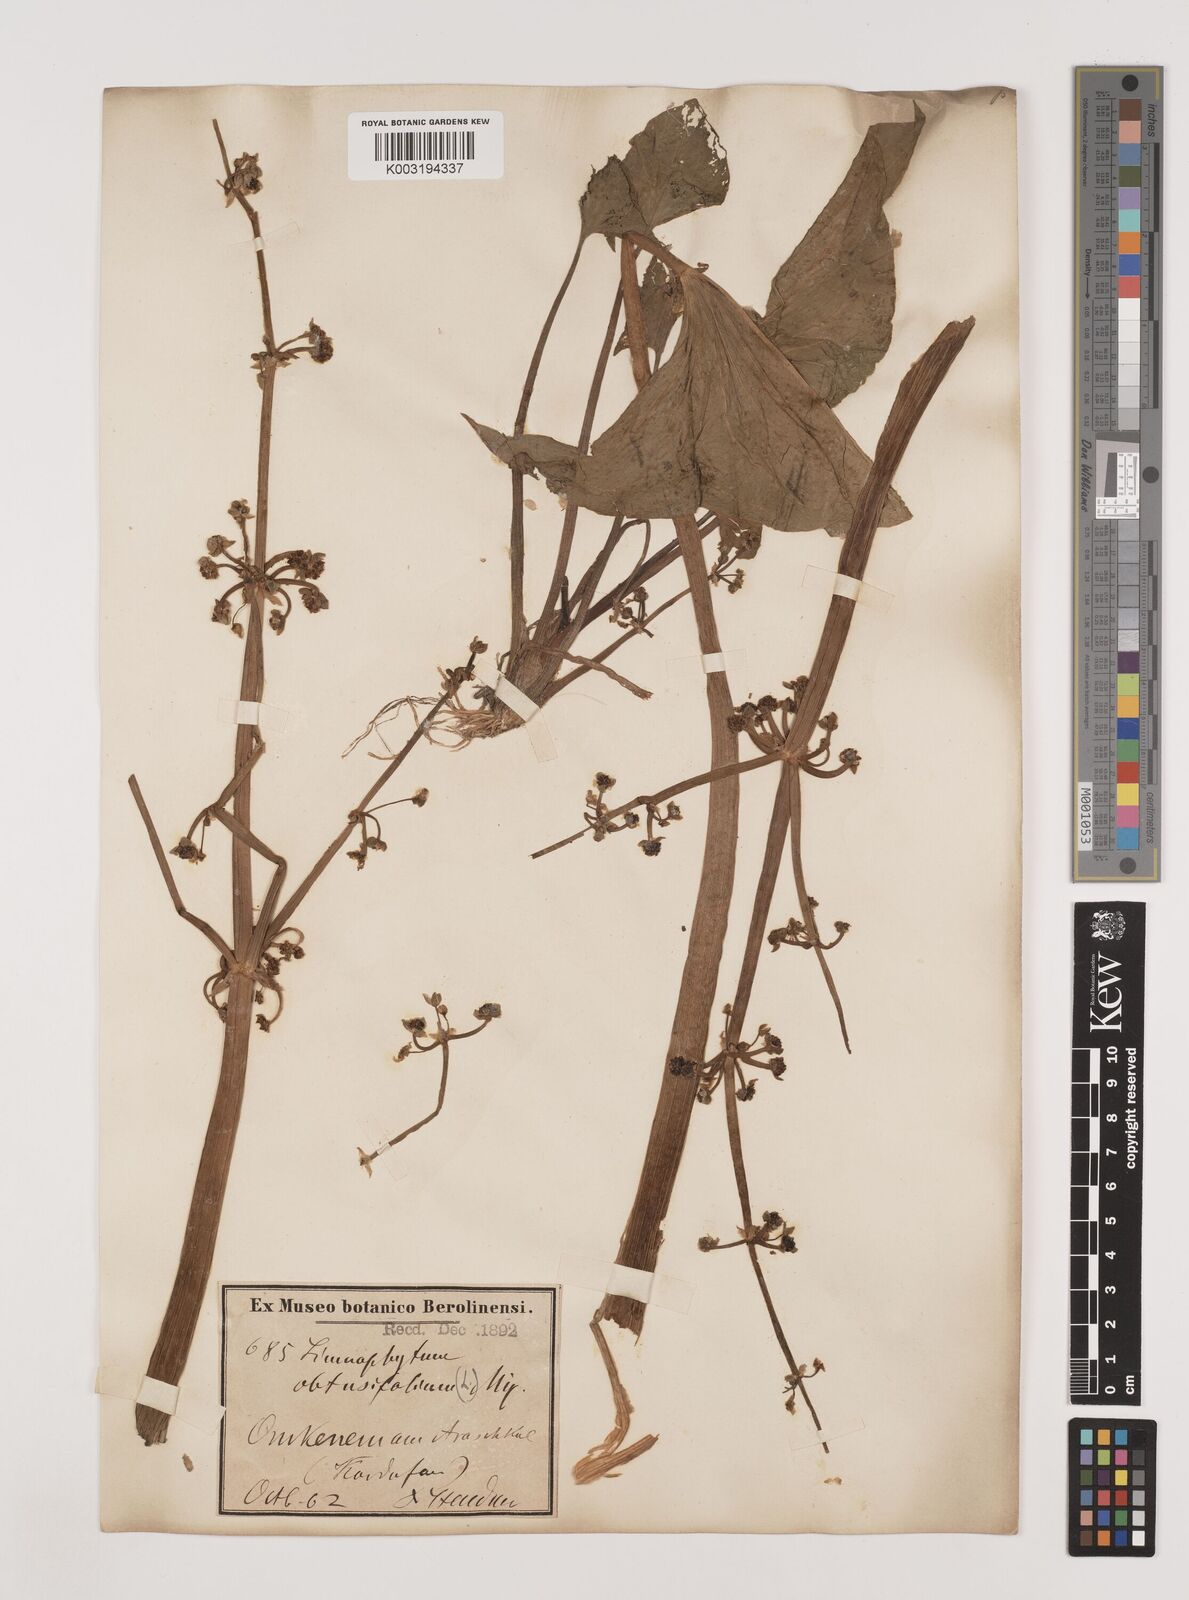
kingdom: Plantae
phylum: Tracheophyta
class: Liliopsida
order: Alismatales
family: Alismataceae
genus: Limnophyton
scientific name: Limnophyton obtusifolium
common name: Arrow head
